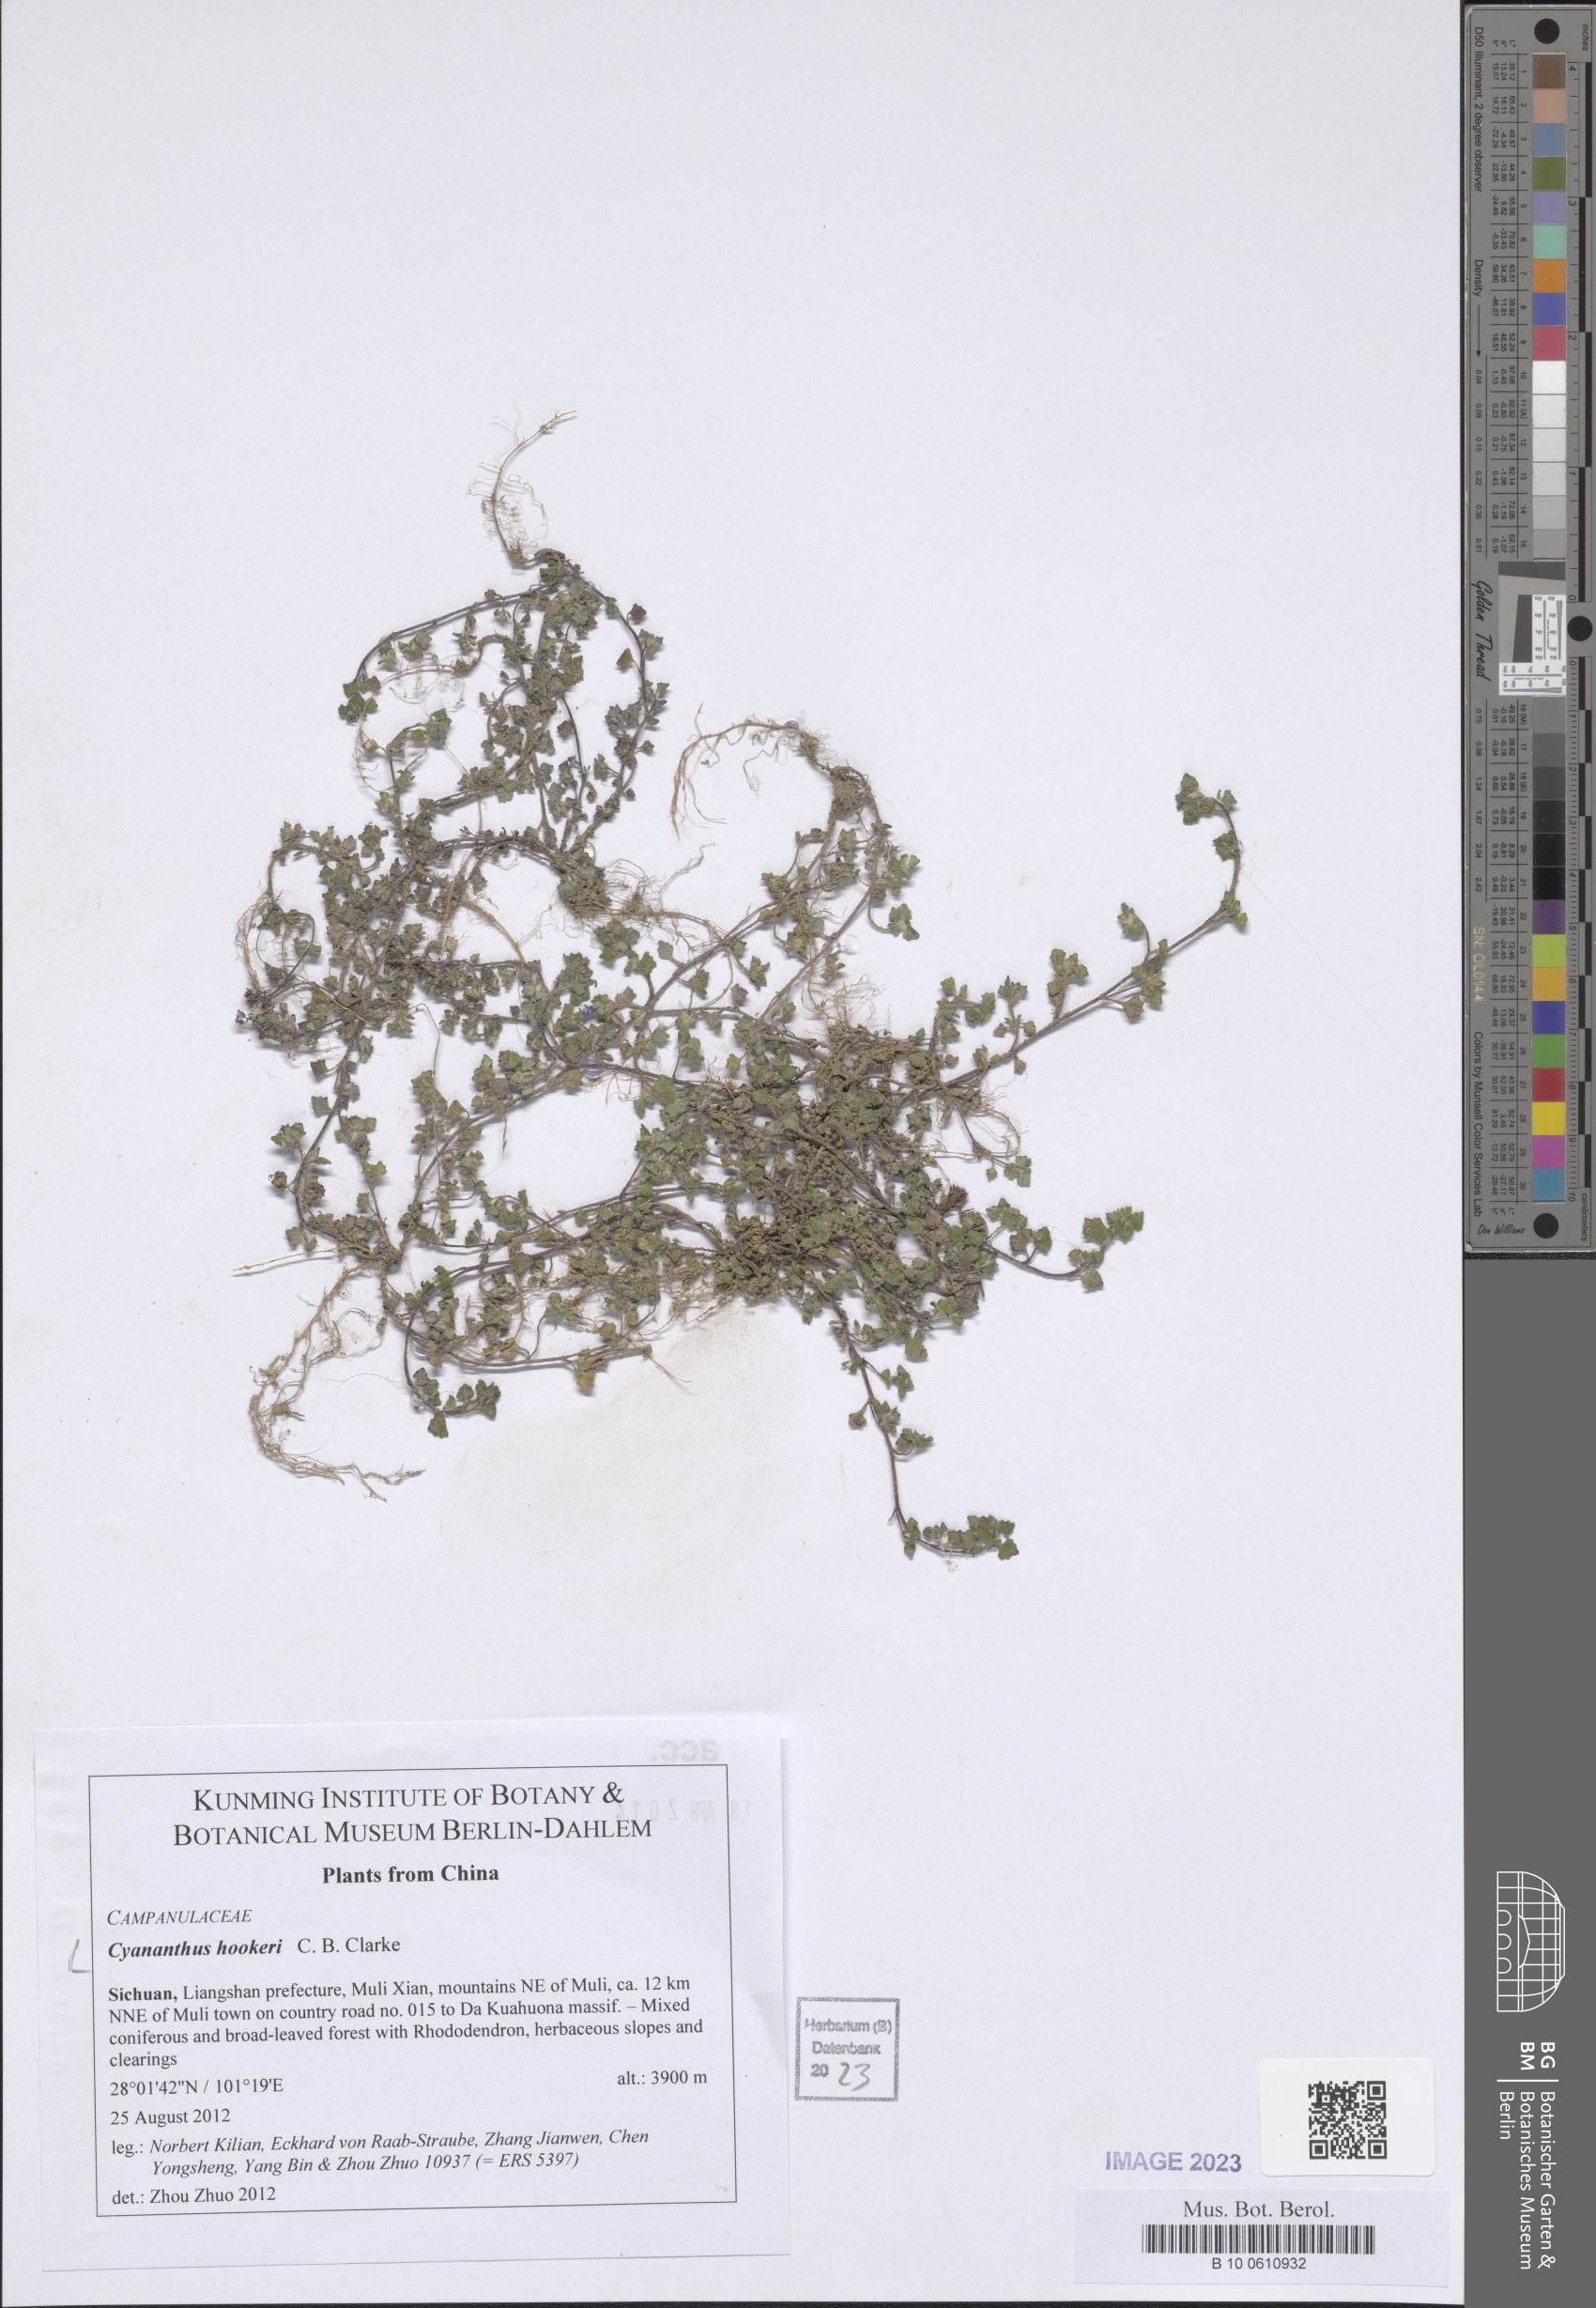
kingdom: Plantae
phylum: Tracheophyta
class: Magnoliopsida
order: Asterales
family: Campanulaceae
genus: Cyananthus
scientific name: Cyananthus hookeri
